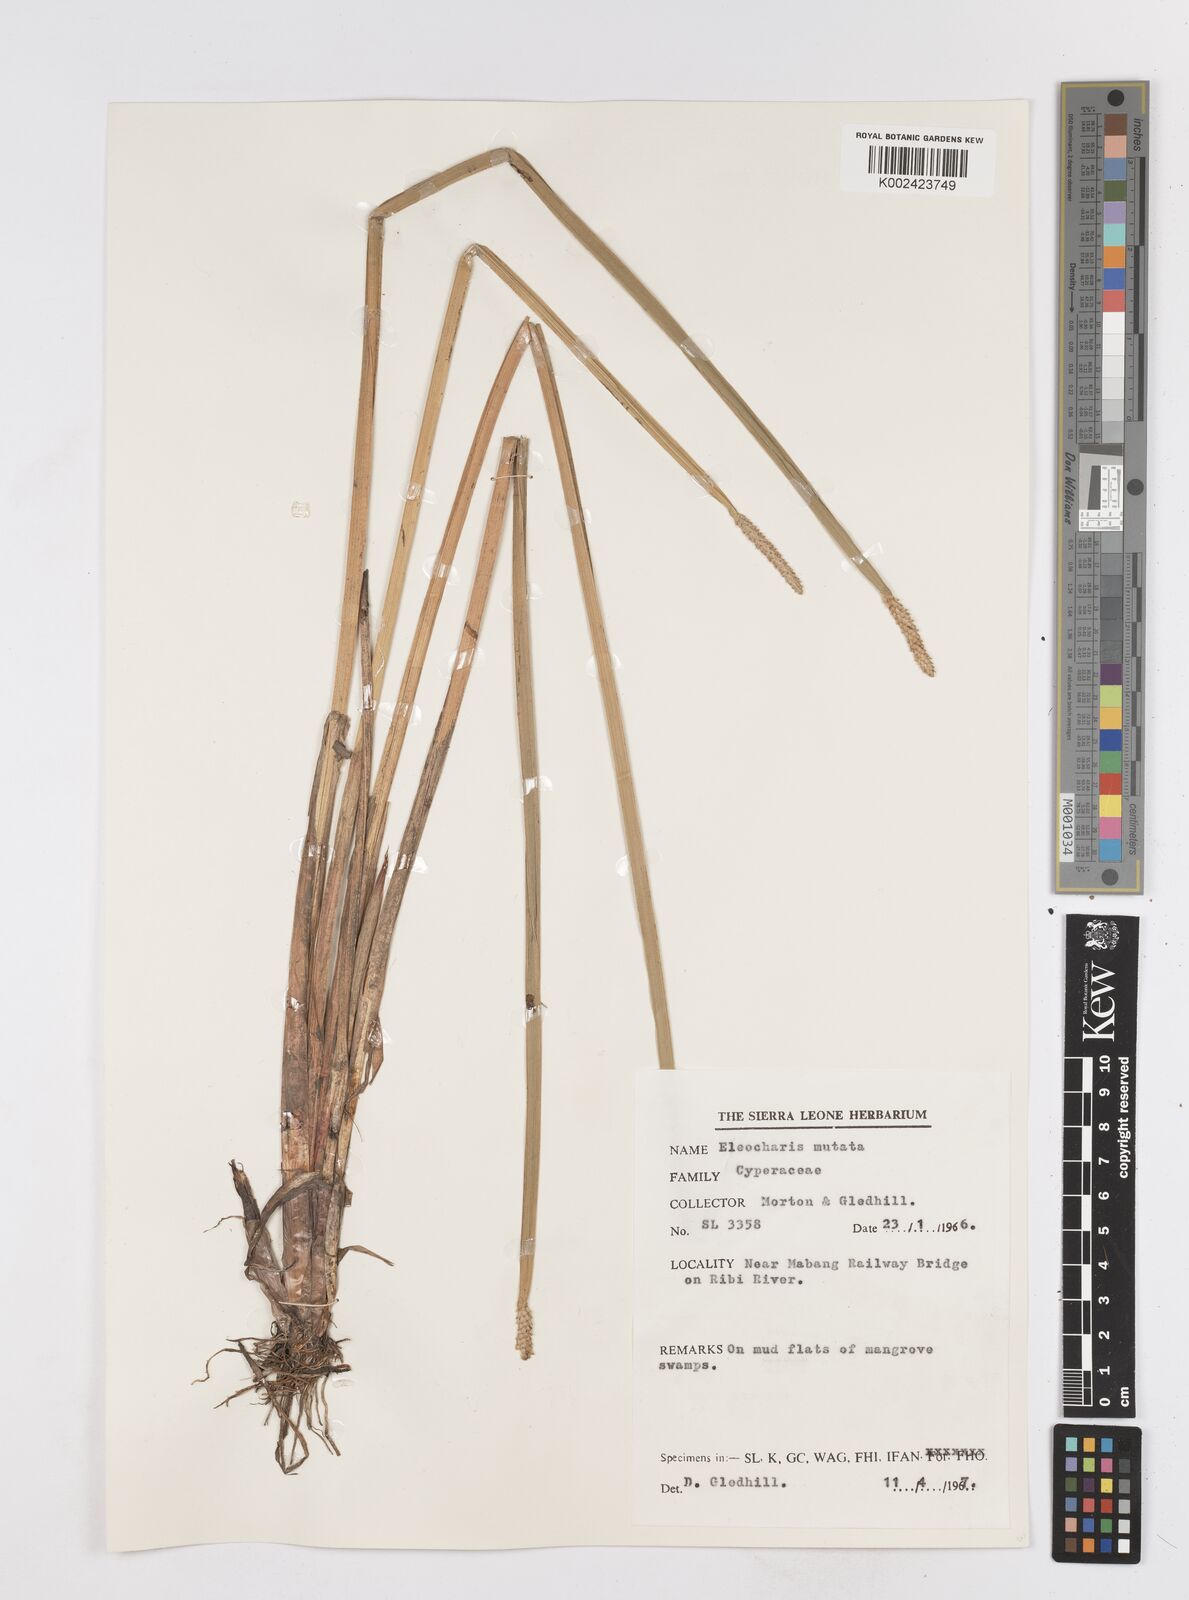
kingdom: Plantae
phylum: Tracheophyta
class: Liliopsida
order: Poales
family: Cyperaceae
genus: Eleocharis
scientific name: Eleocharis mutata
